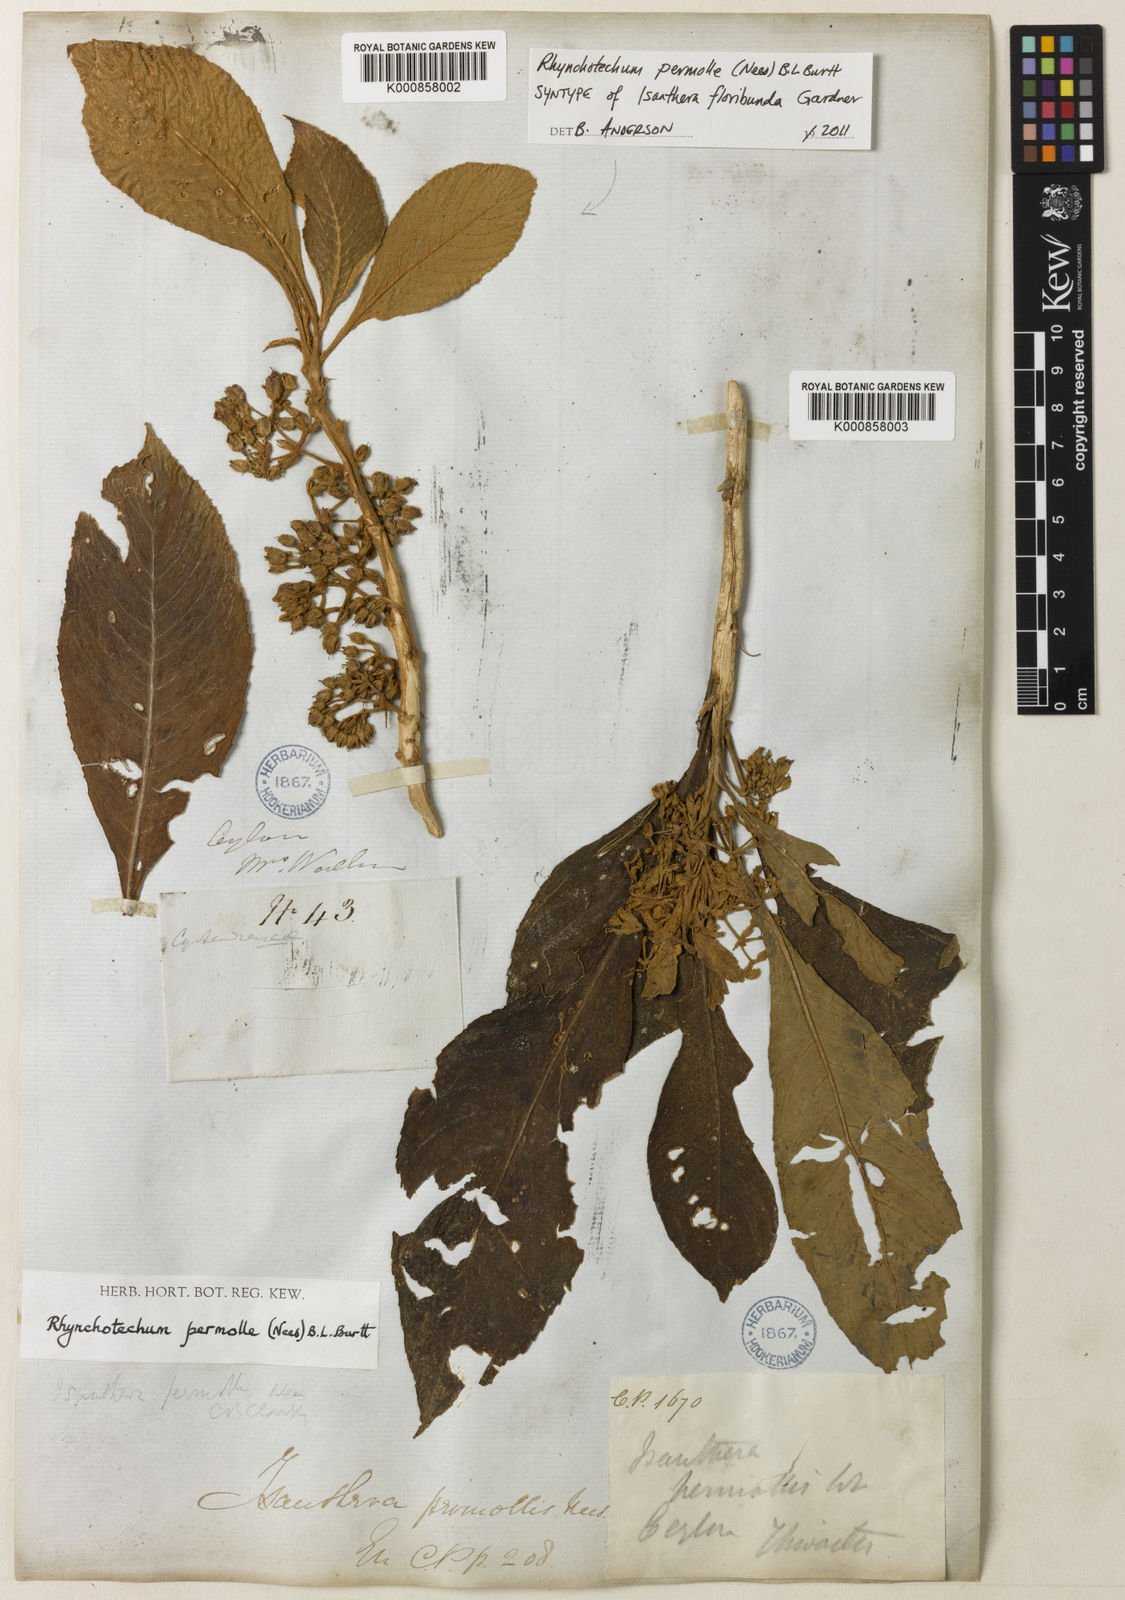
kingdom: Plantae
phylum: Tracheophyta
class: Magnoliopsida
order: Lamiales
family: Gesneriaceae
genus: Rhynchotechum
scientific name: Rhynchotechum permolle
